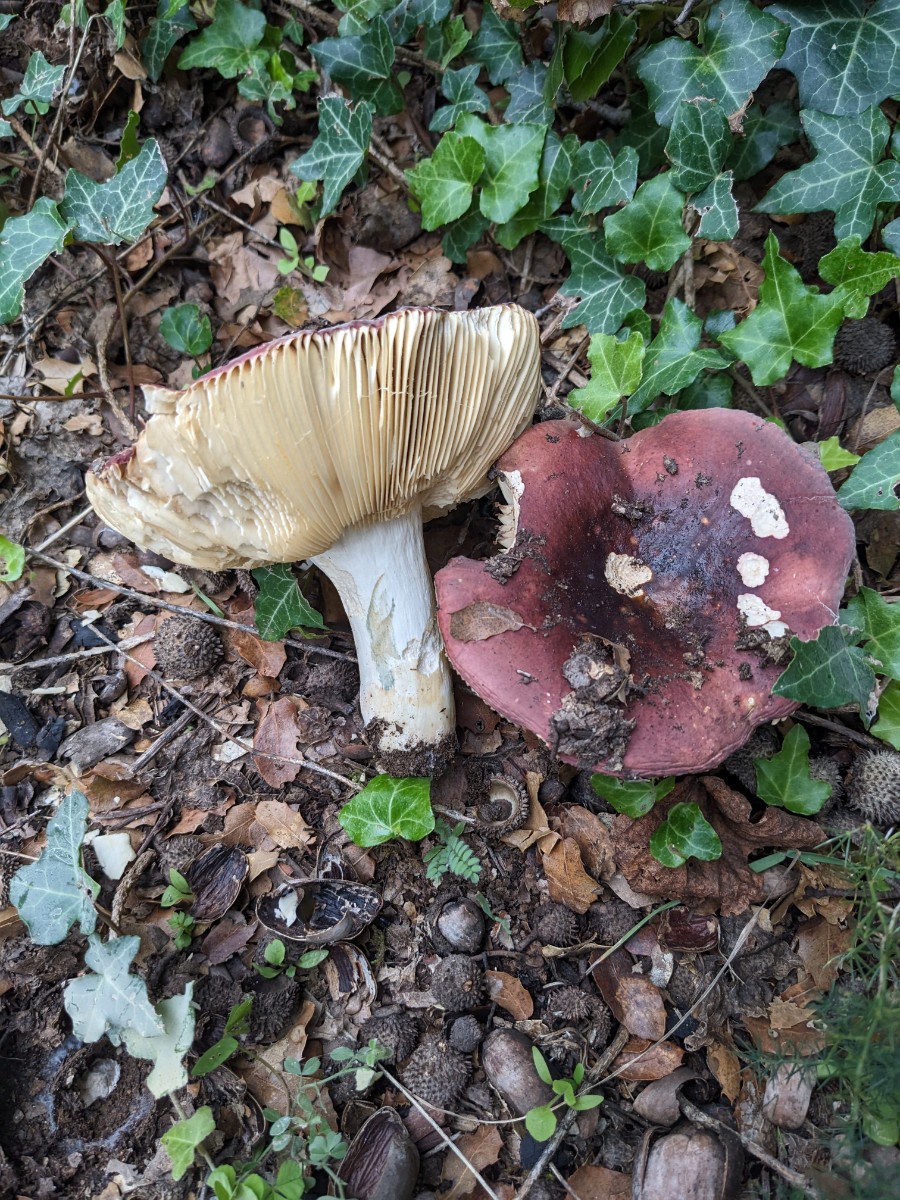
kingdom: Fungi
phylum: Basidiomycota
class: Agaricomycetes
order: Russulales
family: Russulaceae
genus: Russula
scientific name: Russula graveolens
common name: bugtet skørhat
